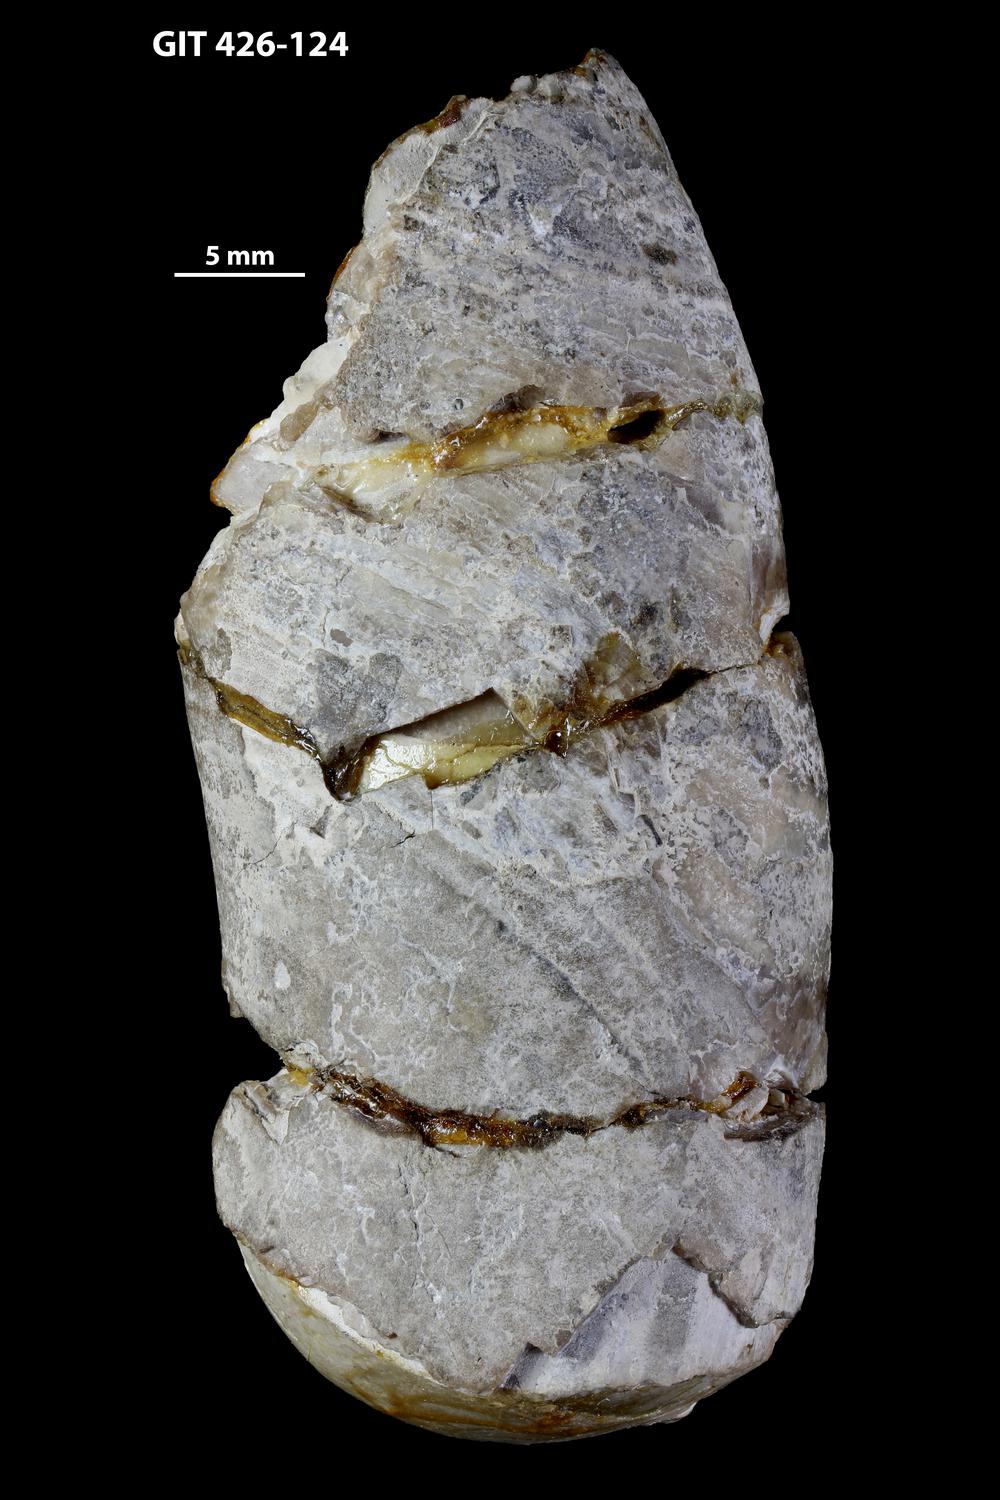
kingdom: Animalia
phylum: Mollusca
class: Cephalopoda
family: Estonioceratidae
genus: Tragoceras
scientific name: Tragoceras
